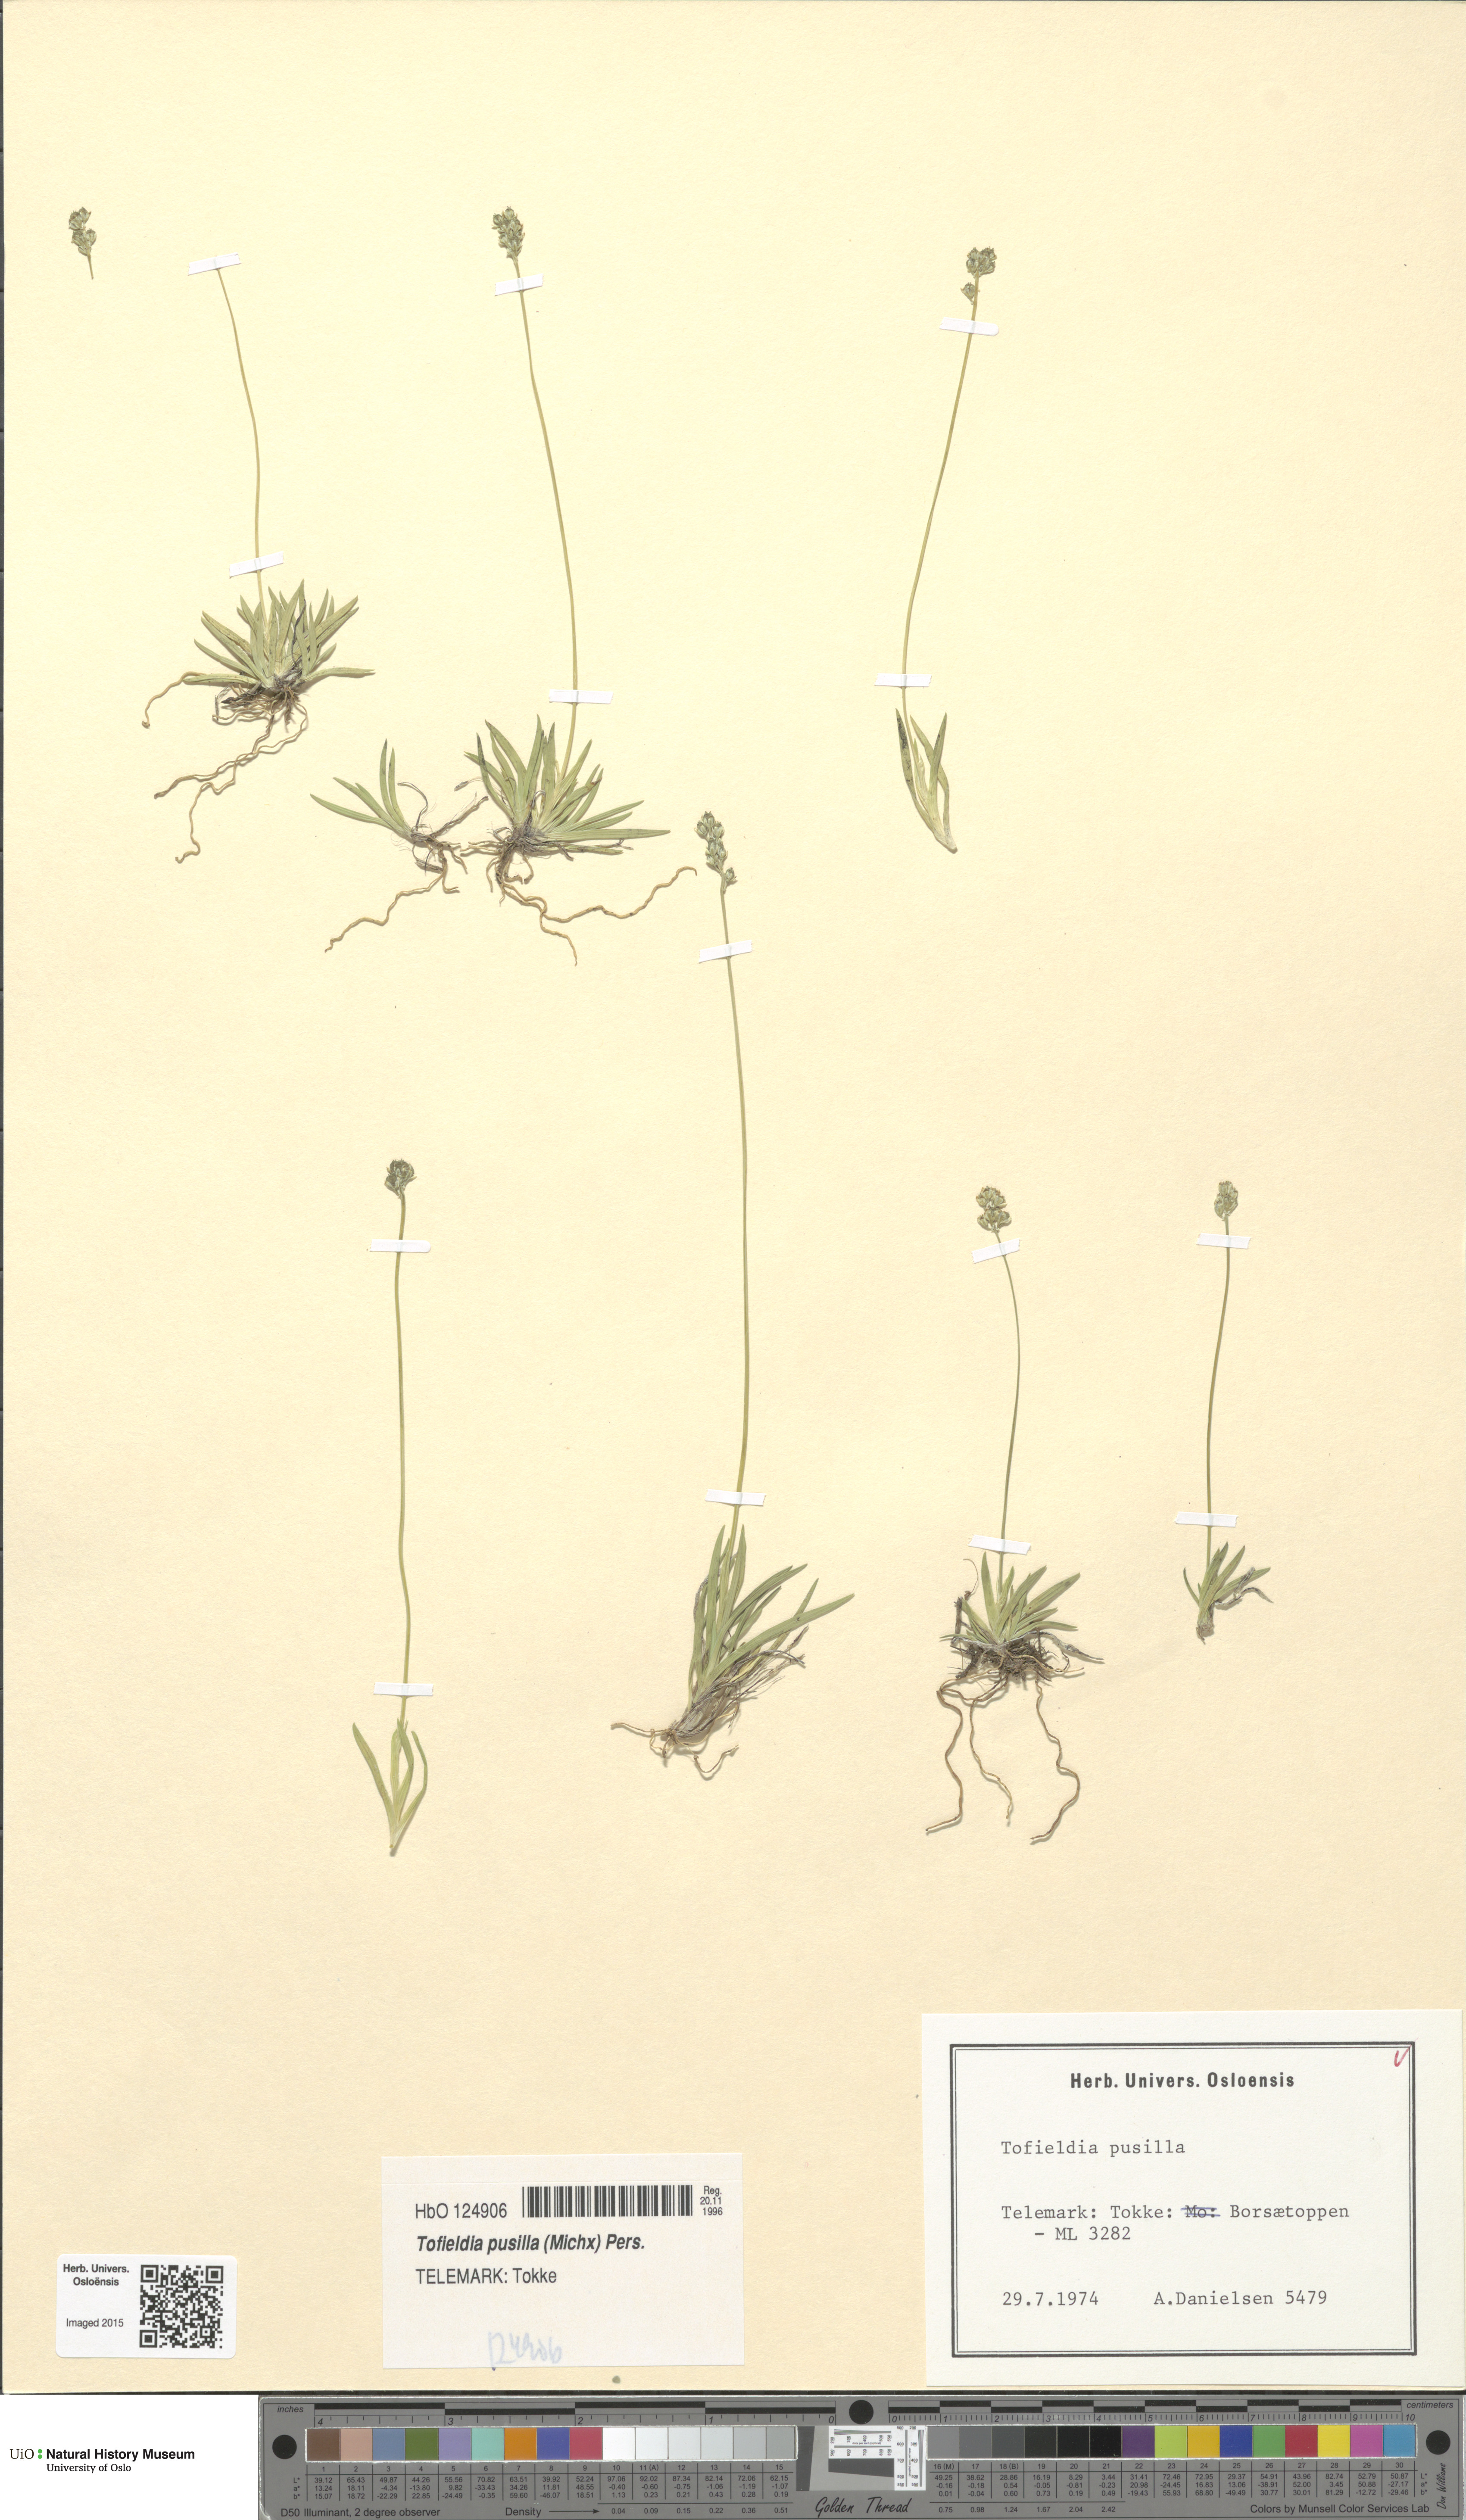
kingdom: Plantae
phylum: Tracheophyta
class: Liliopsida
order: Alismatales
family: Tofieldiaceae
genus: Tofieldia
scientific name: Tofieldia pusilla
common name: Scottish false asphodel
